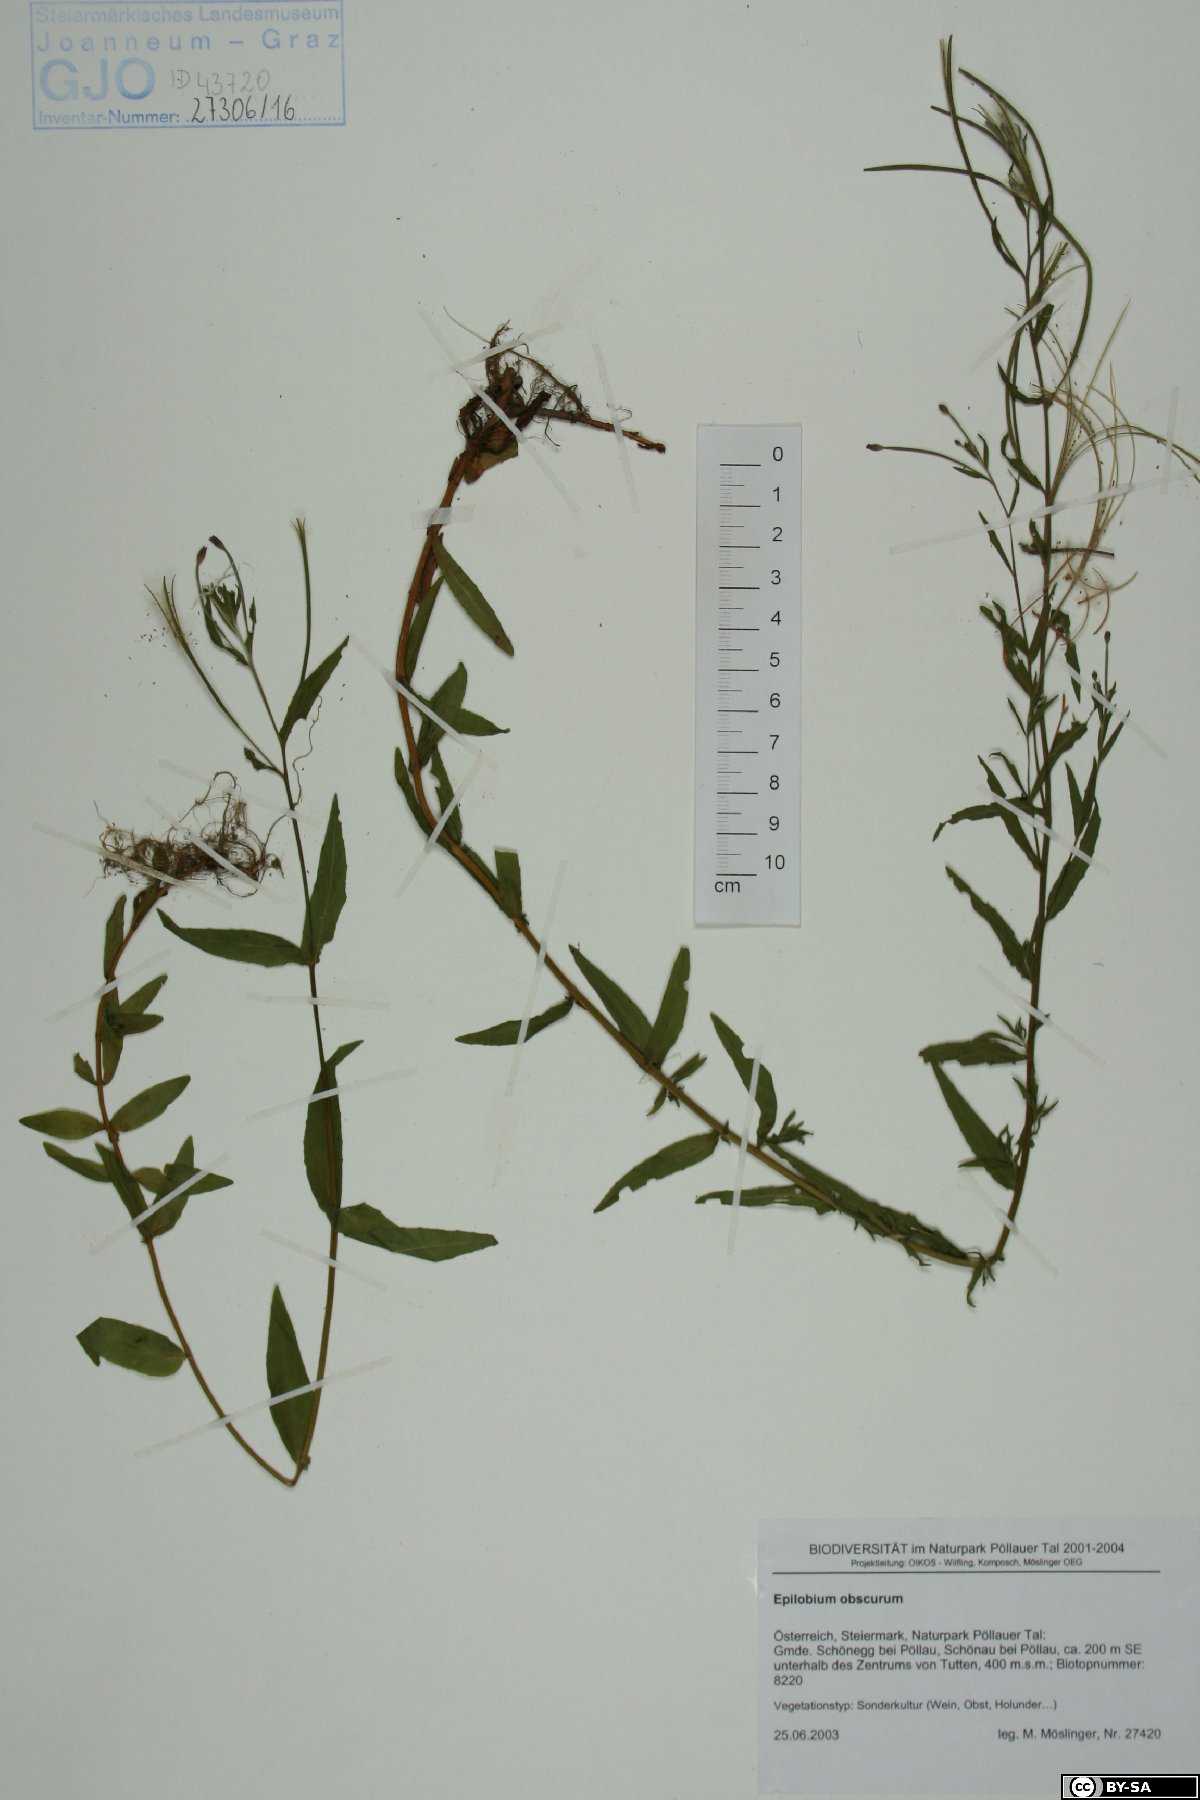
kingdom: Plantae
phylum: Tracheophyta
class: Magnoliopsida
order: Myrtales
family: Onagraceae
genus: Epilobium
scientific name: Epilobium obscurum
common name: Short-fruited willowherb
